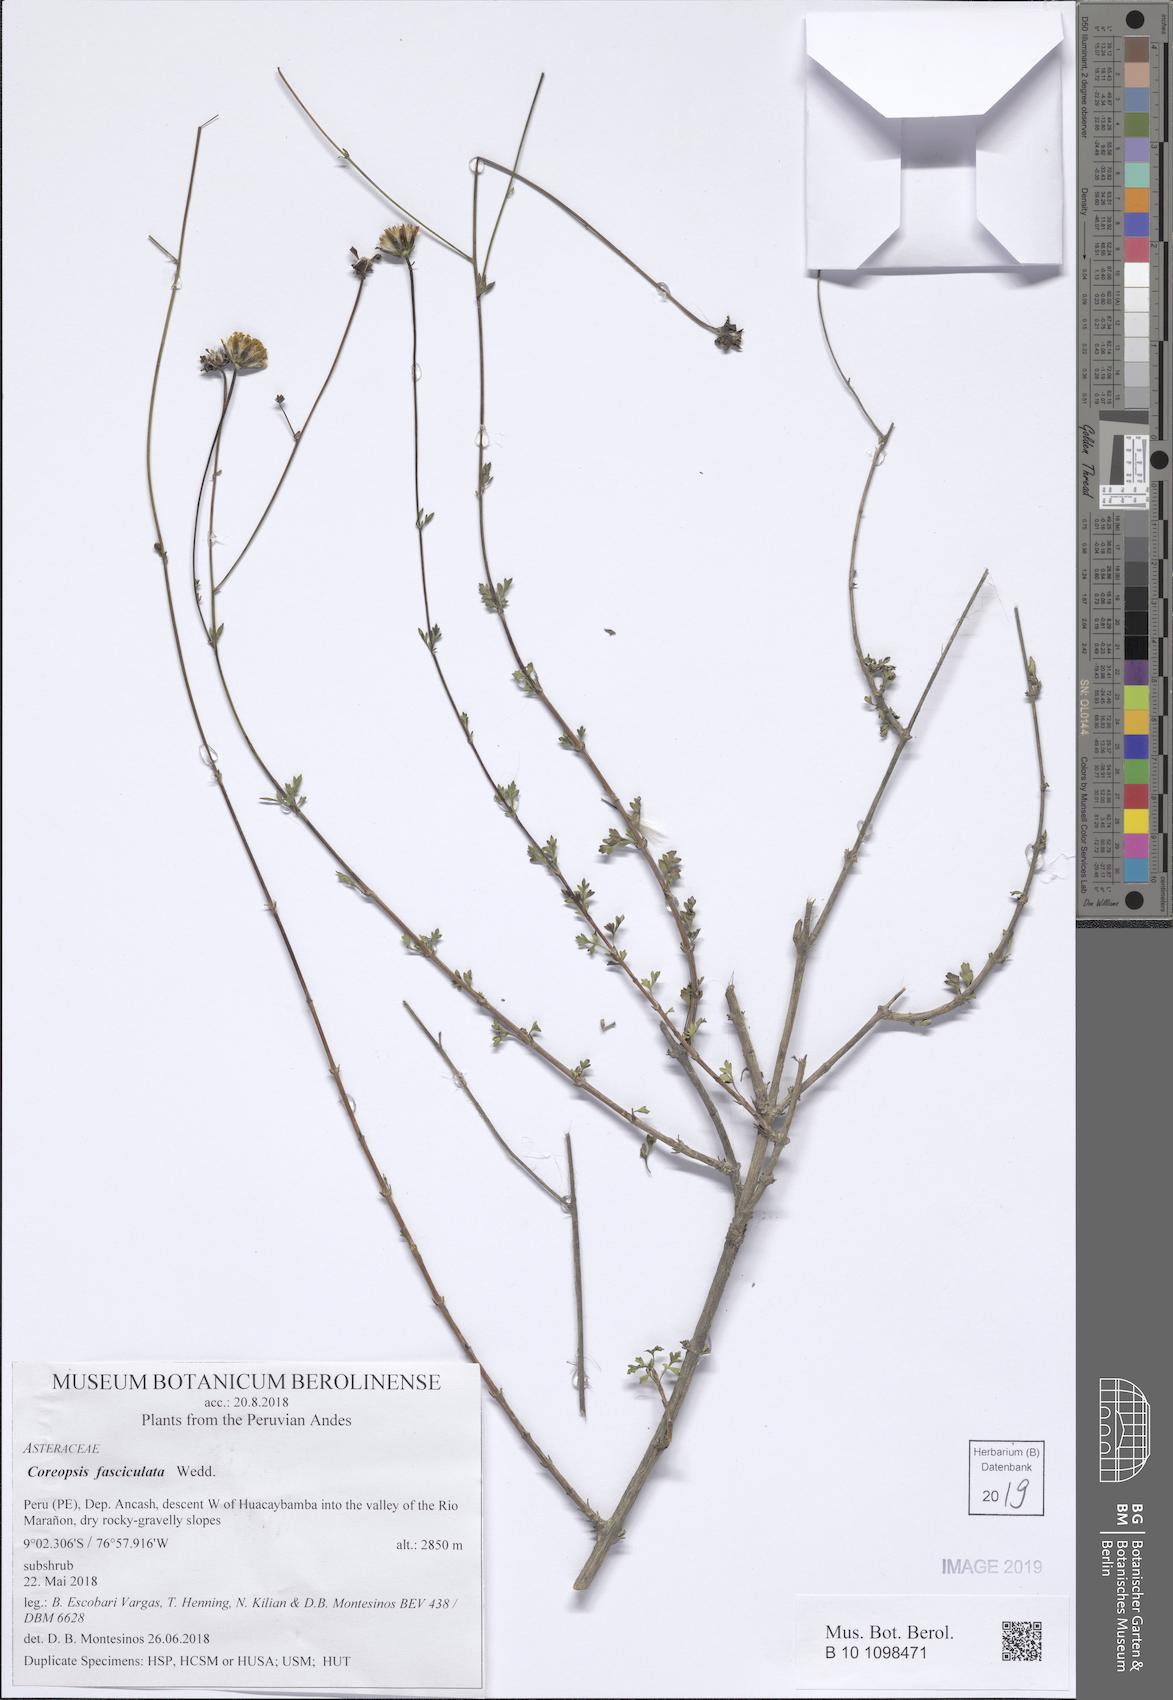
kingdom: Plantae
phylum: Tracheophyta
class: Magnoliopsida
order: Asterales
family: Asteraceae
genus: Coreopsis
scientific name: Coreopsis fasciculata
